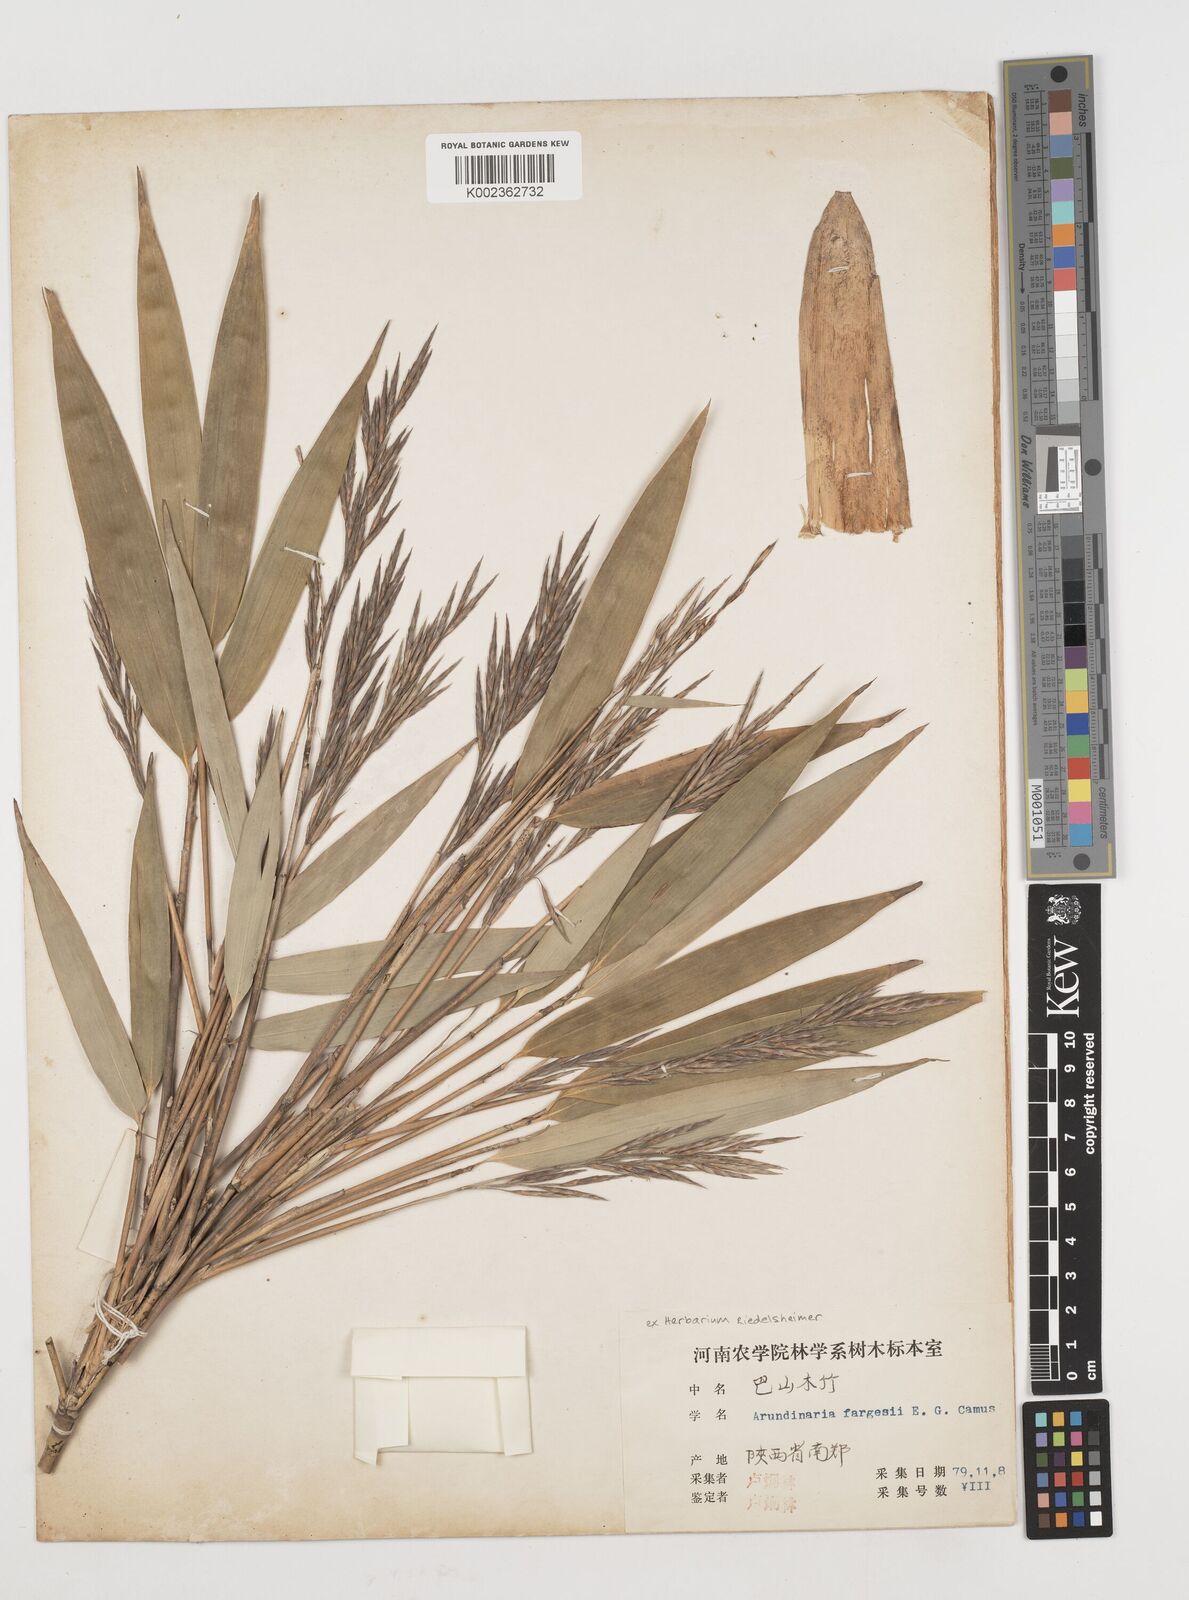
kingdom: Plantae
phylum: Tracheophyta
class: Liliopsida
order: Poales
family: Poaceae
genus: Bashania
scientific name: Bashania fargesii
